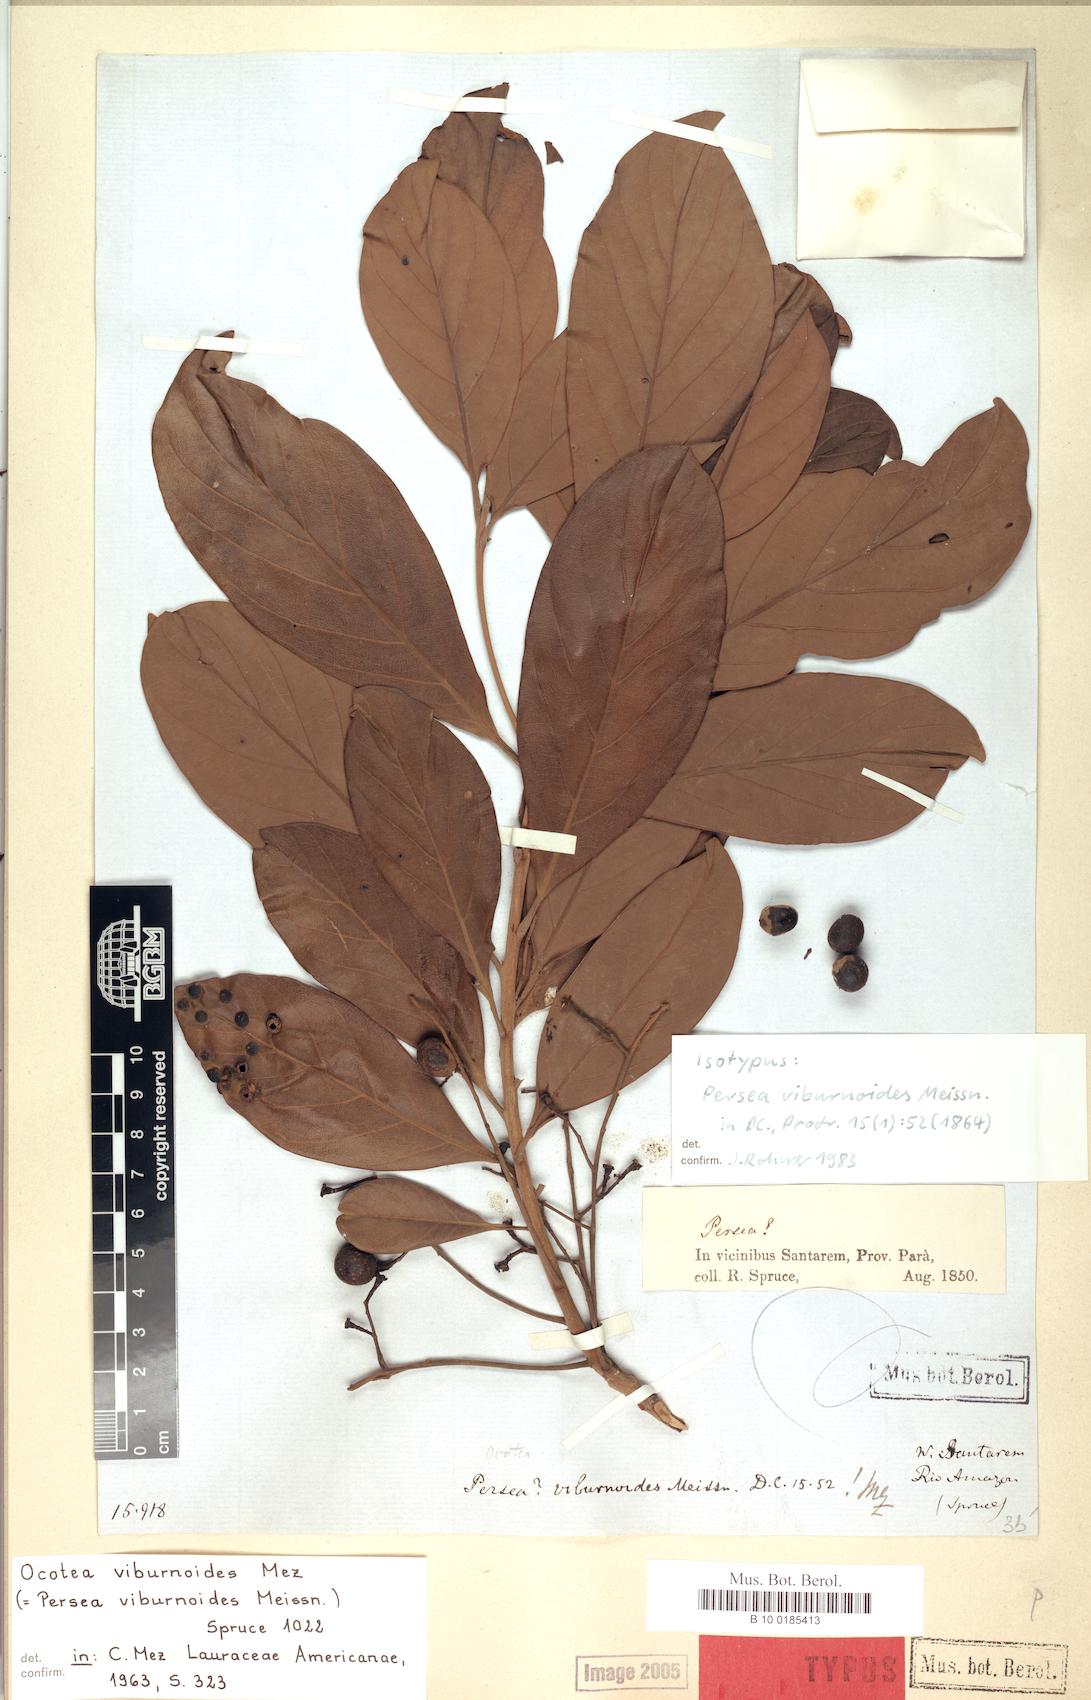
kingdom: Plantae
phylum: Tracheophyta
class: Magnoliopsida
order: Laurales
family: Lauraceae
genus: Ocotea
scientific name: Ocotea viburnoides
